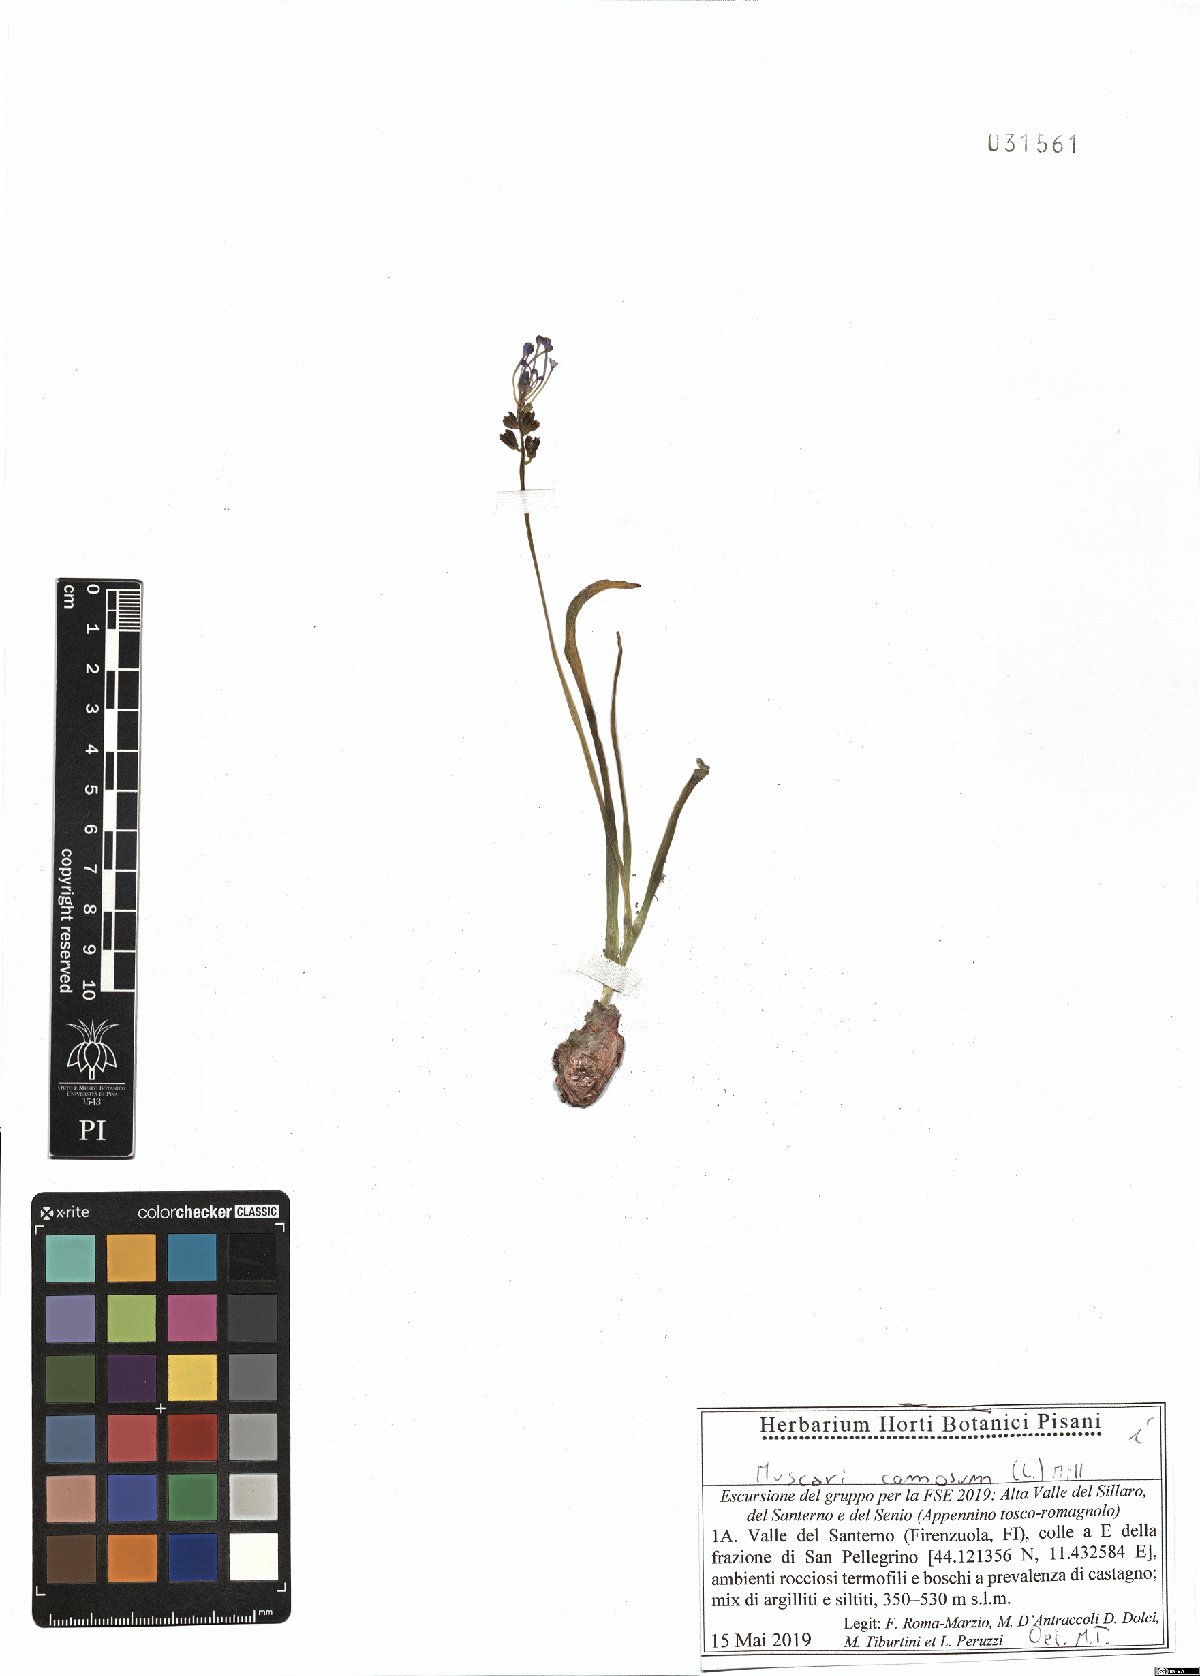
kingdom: Plantae
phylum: Tracheophyta
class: Liliopsida
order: Asparagales
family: Asparagaceae
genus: Muscari
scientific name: Muscari comosum
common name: Tassel hyacinth
